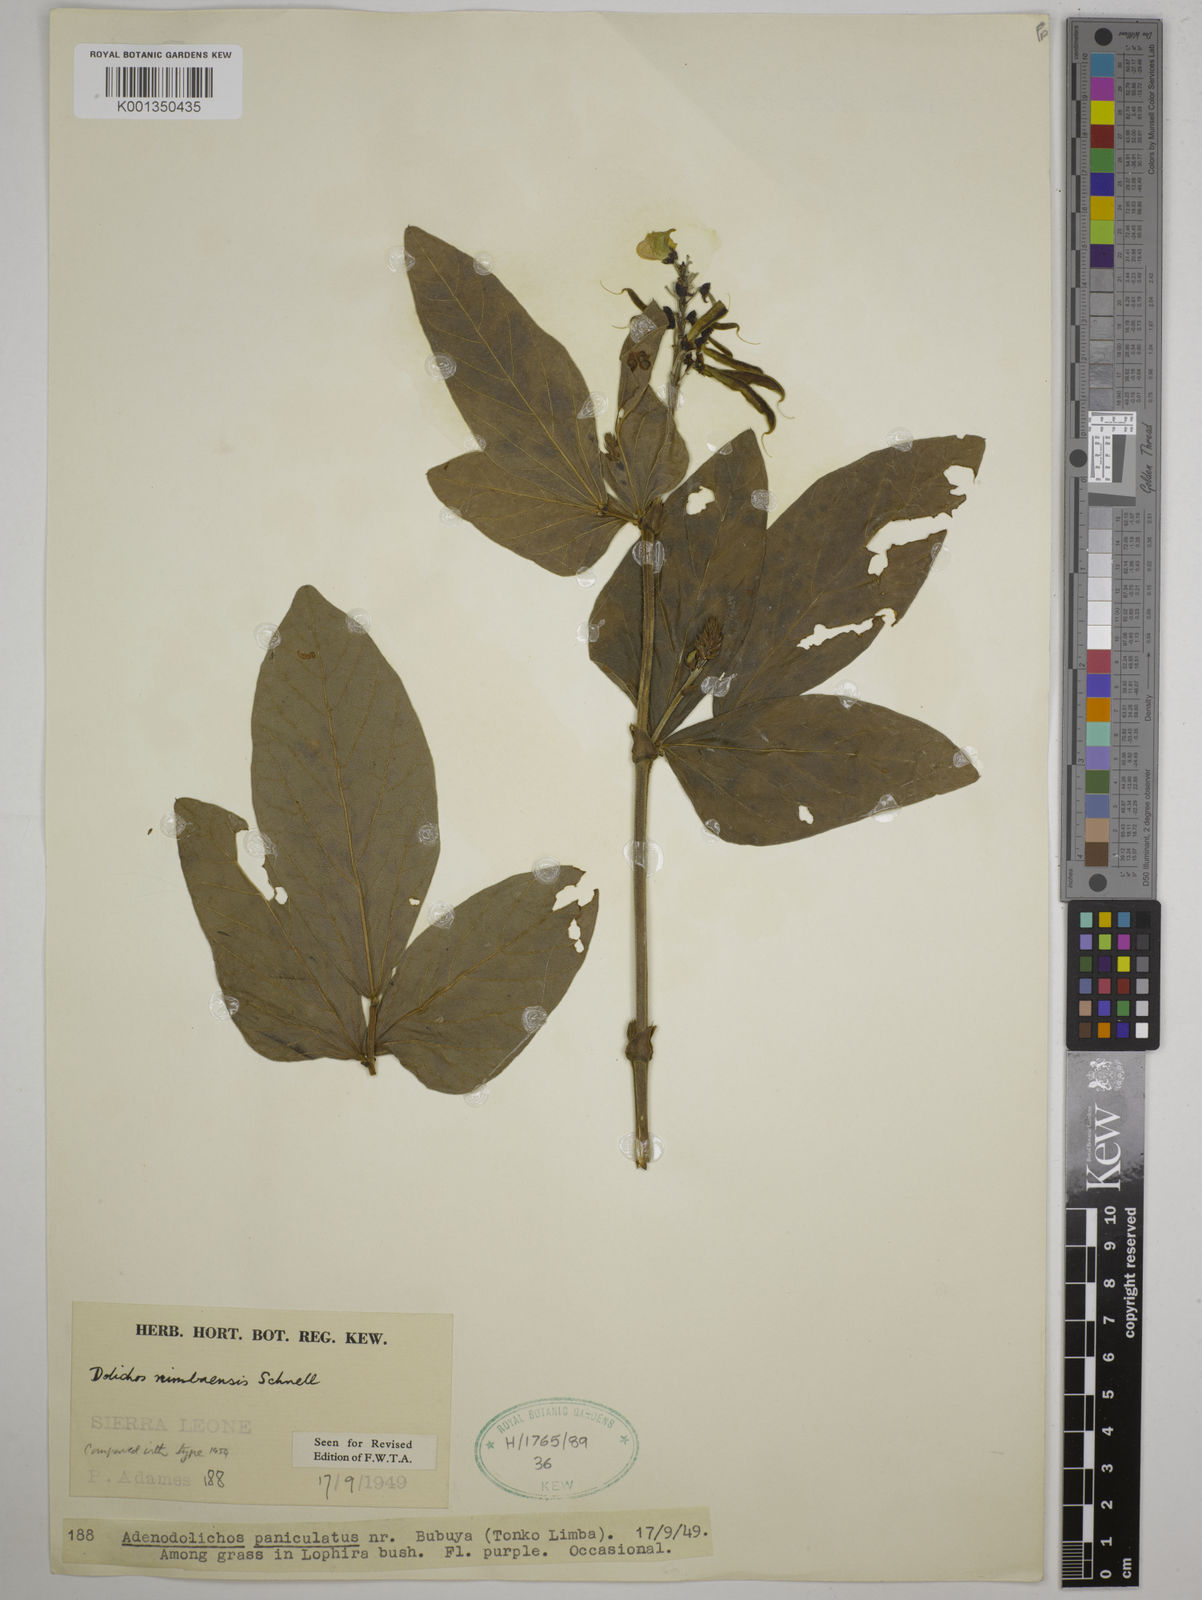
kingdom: Plantae
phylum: Tracheophyta
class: Magnoliopsida
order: Fabales
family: Fabaceae
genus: Dolichos
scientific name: Dolichos nimbaensis
